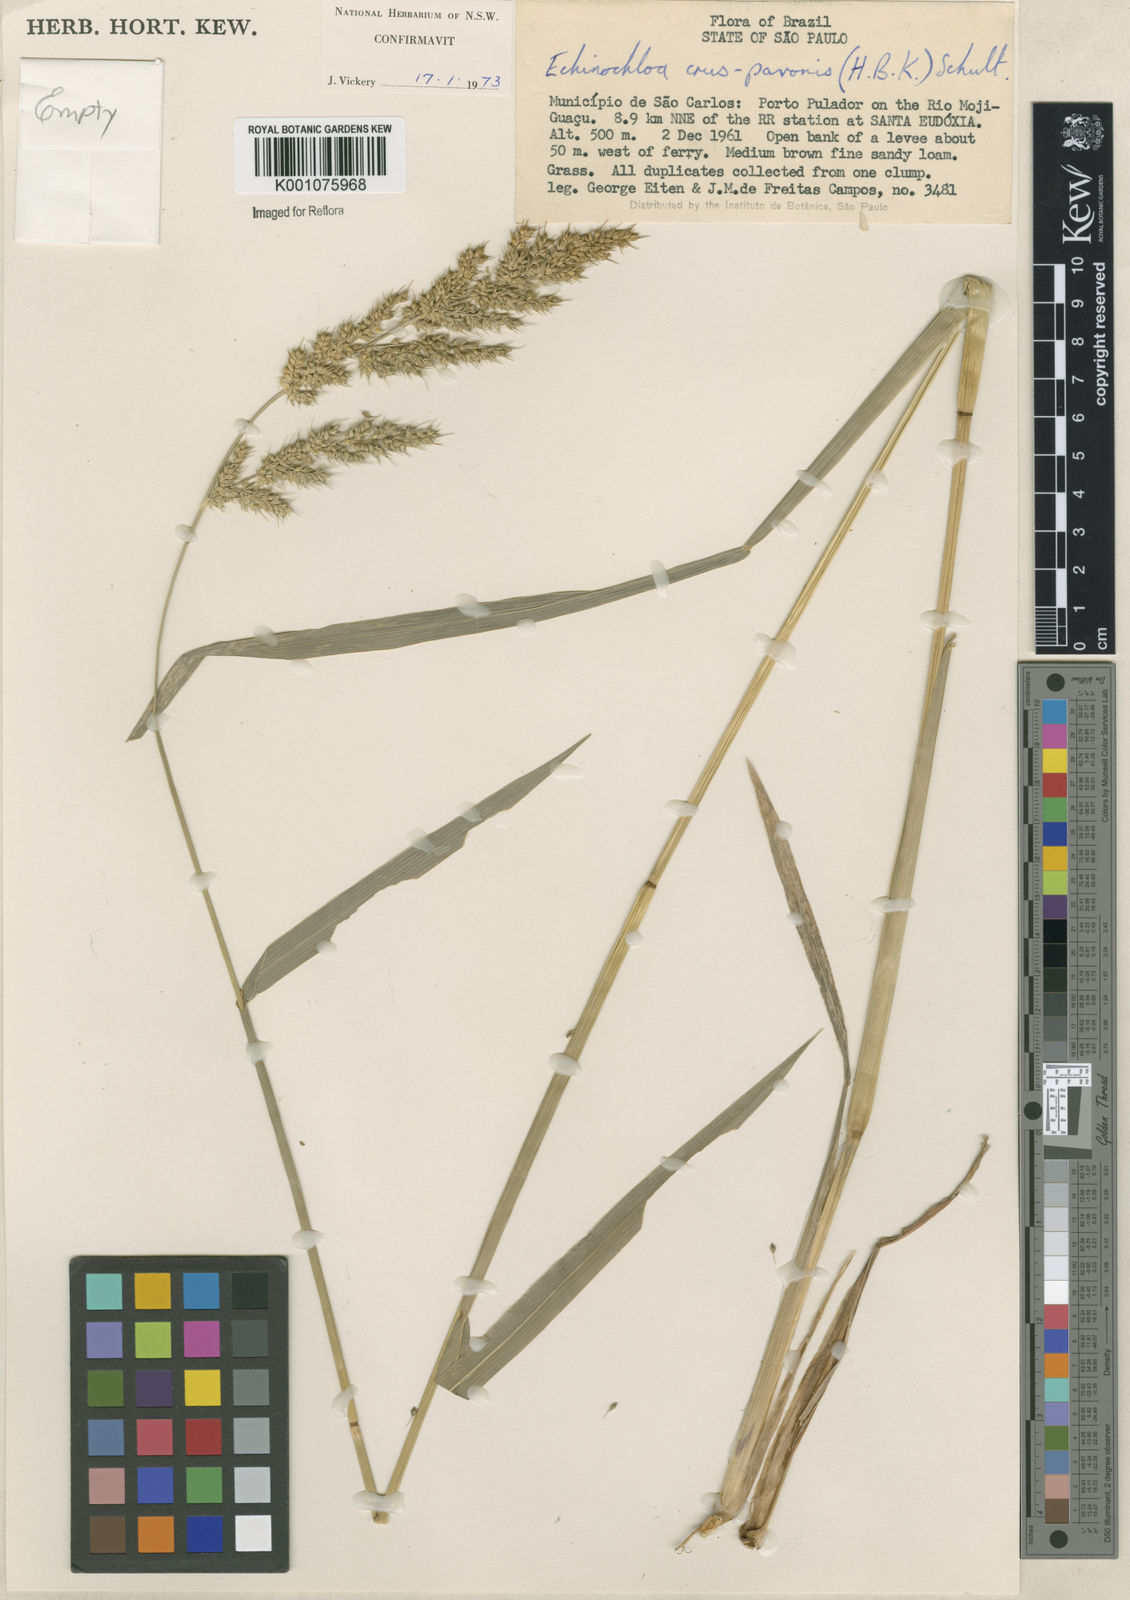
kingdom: Plantae
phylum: Tracheophyta
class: Liliopsida
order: Poales
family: Poaceae
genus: Echinochloa
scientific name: Echinochloa crus-pavonis
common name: Gulf cockspur grass
